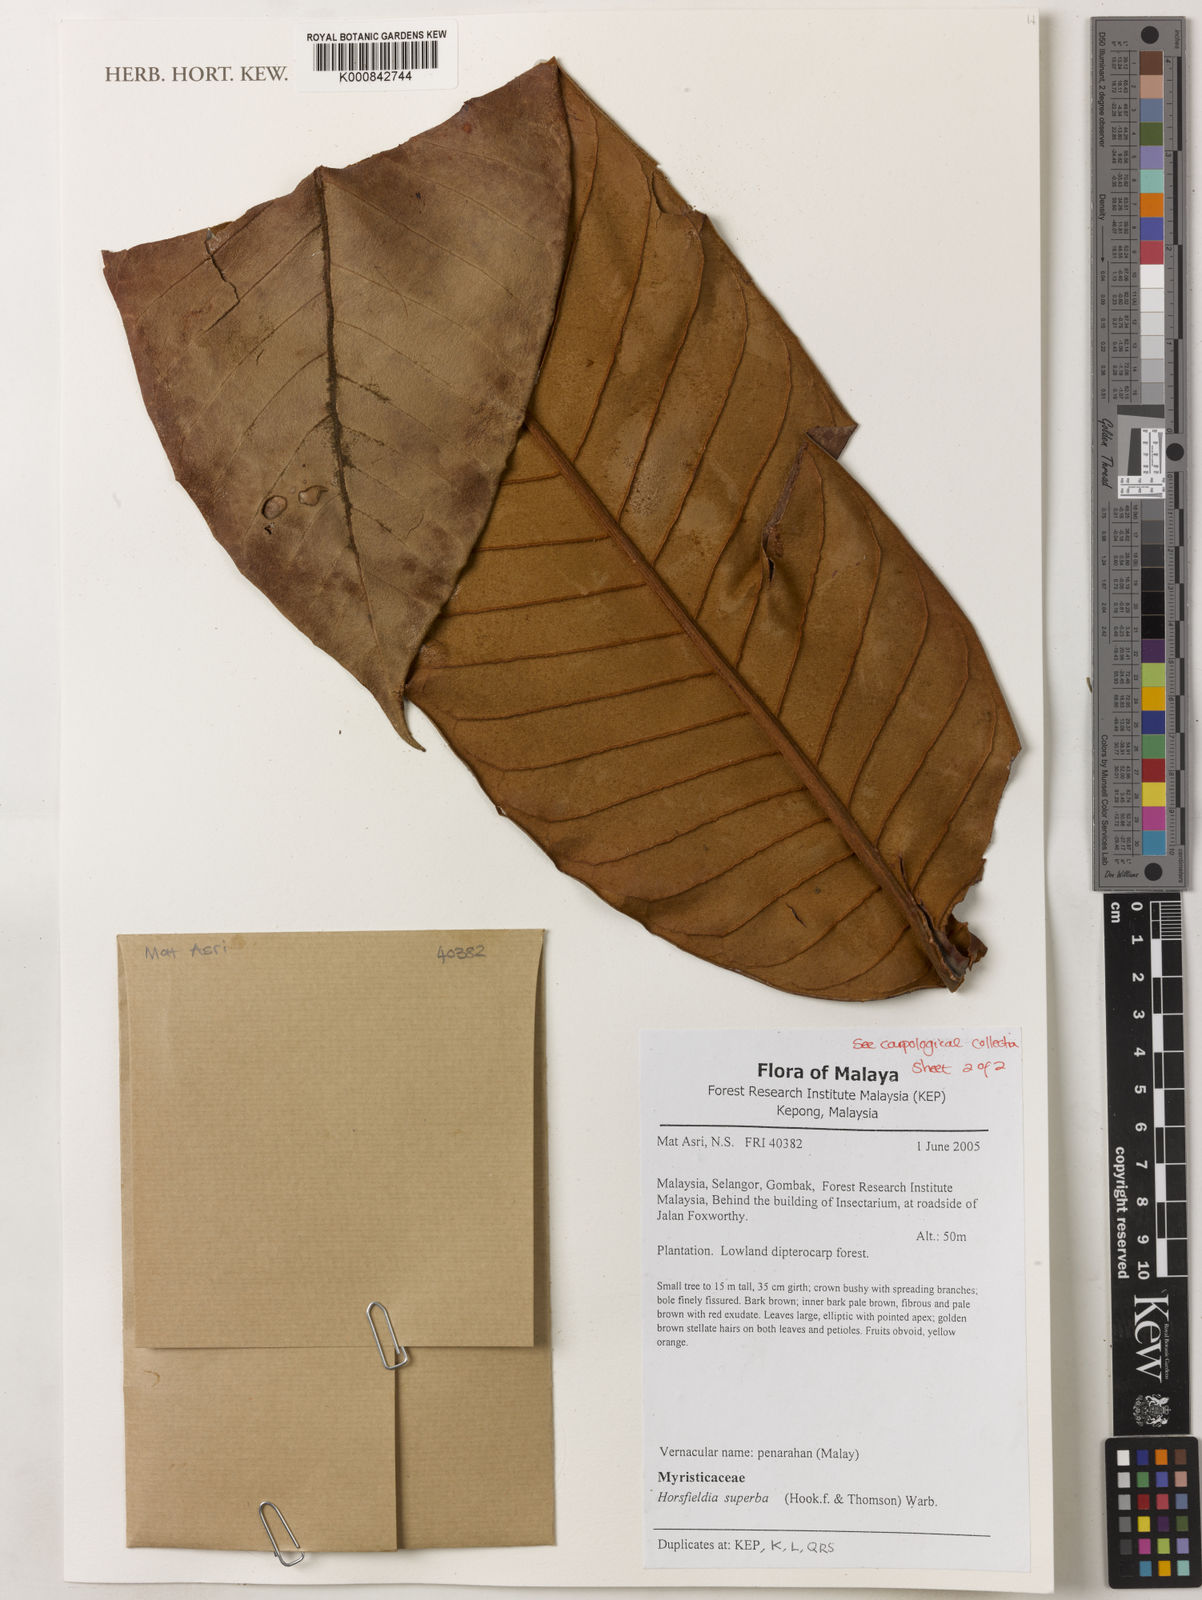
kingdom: Plantae
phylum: Tracheophyta
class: Magnoliopsida
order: Magnoliales
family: Myristicaceae
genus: Horsfieldia
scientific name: Horsfieldia superba
